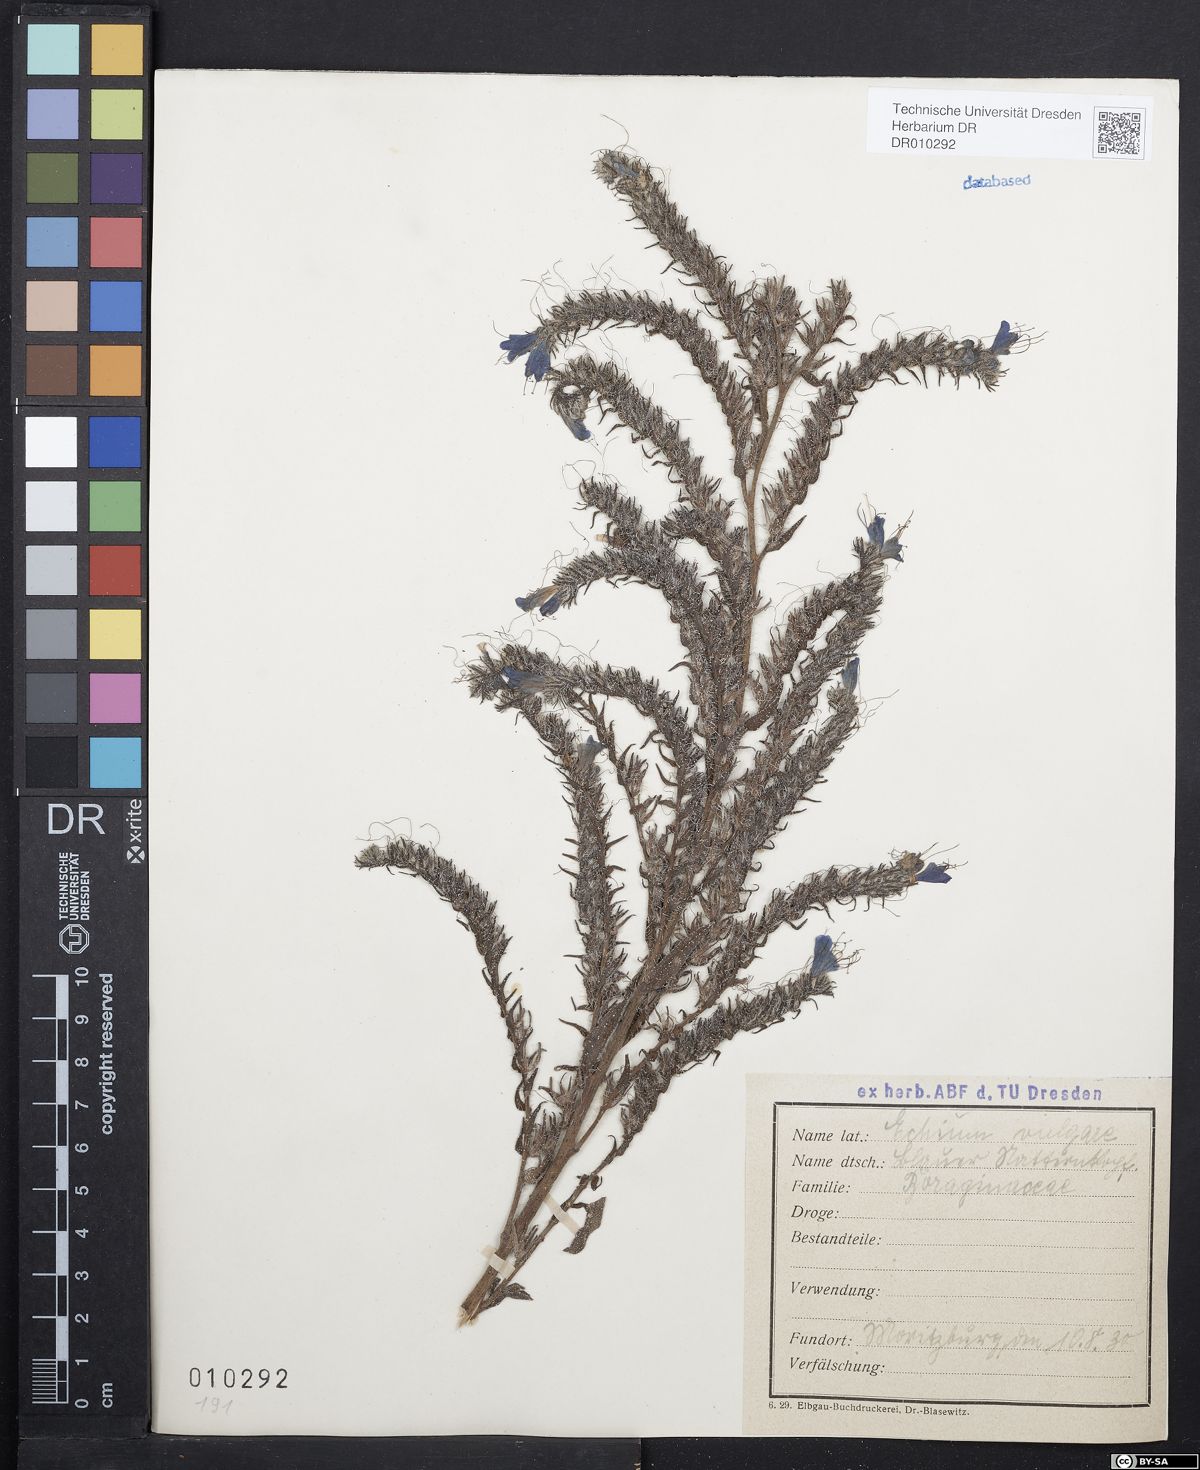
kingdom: Plantae
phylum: Tracheophyta
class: Magnoliopsida
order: Boraginales
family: Boraginaceae
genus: Echium
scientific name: Echium vulgare
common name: Common viper's bugloss
